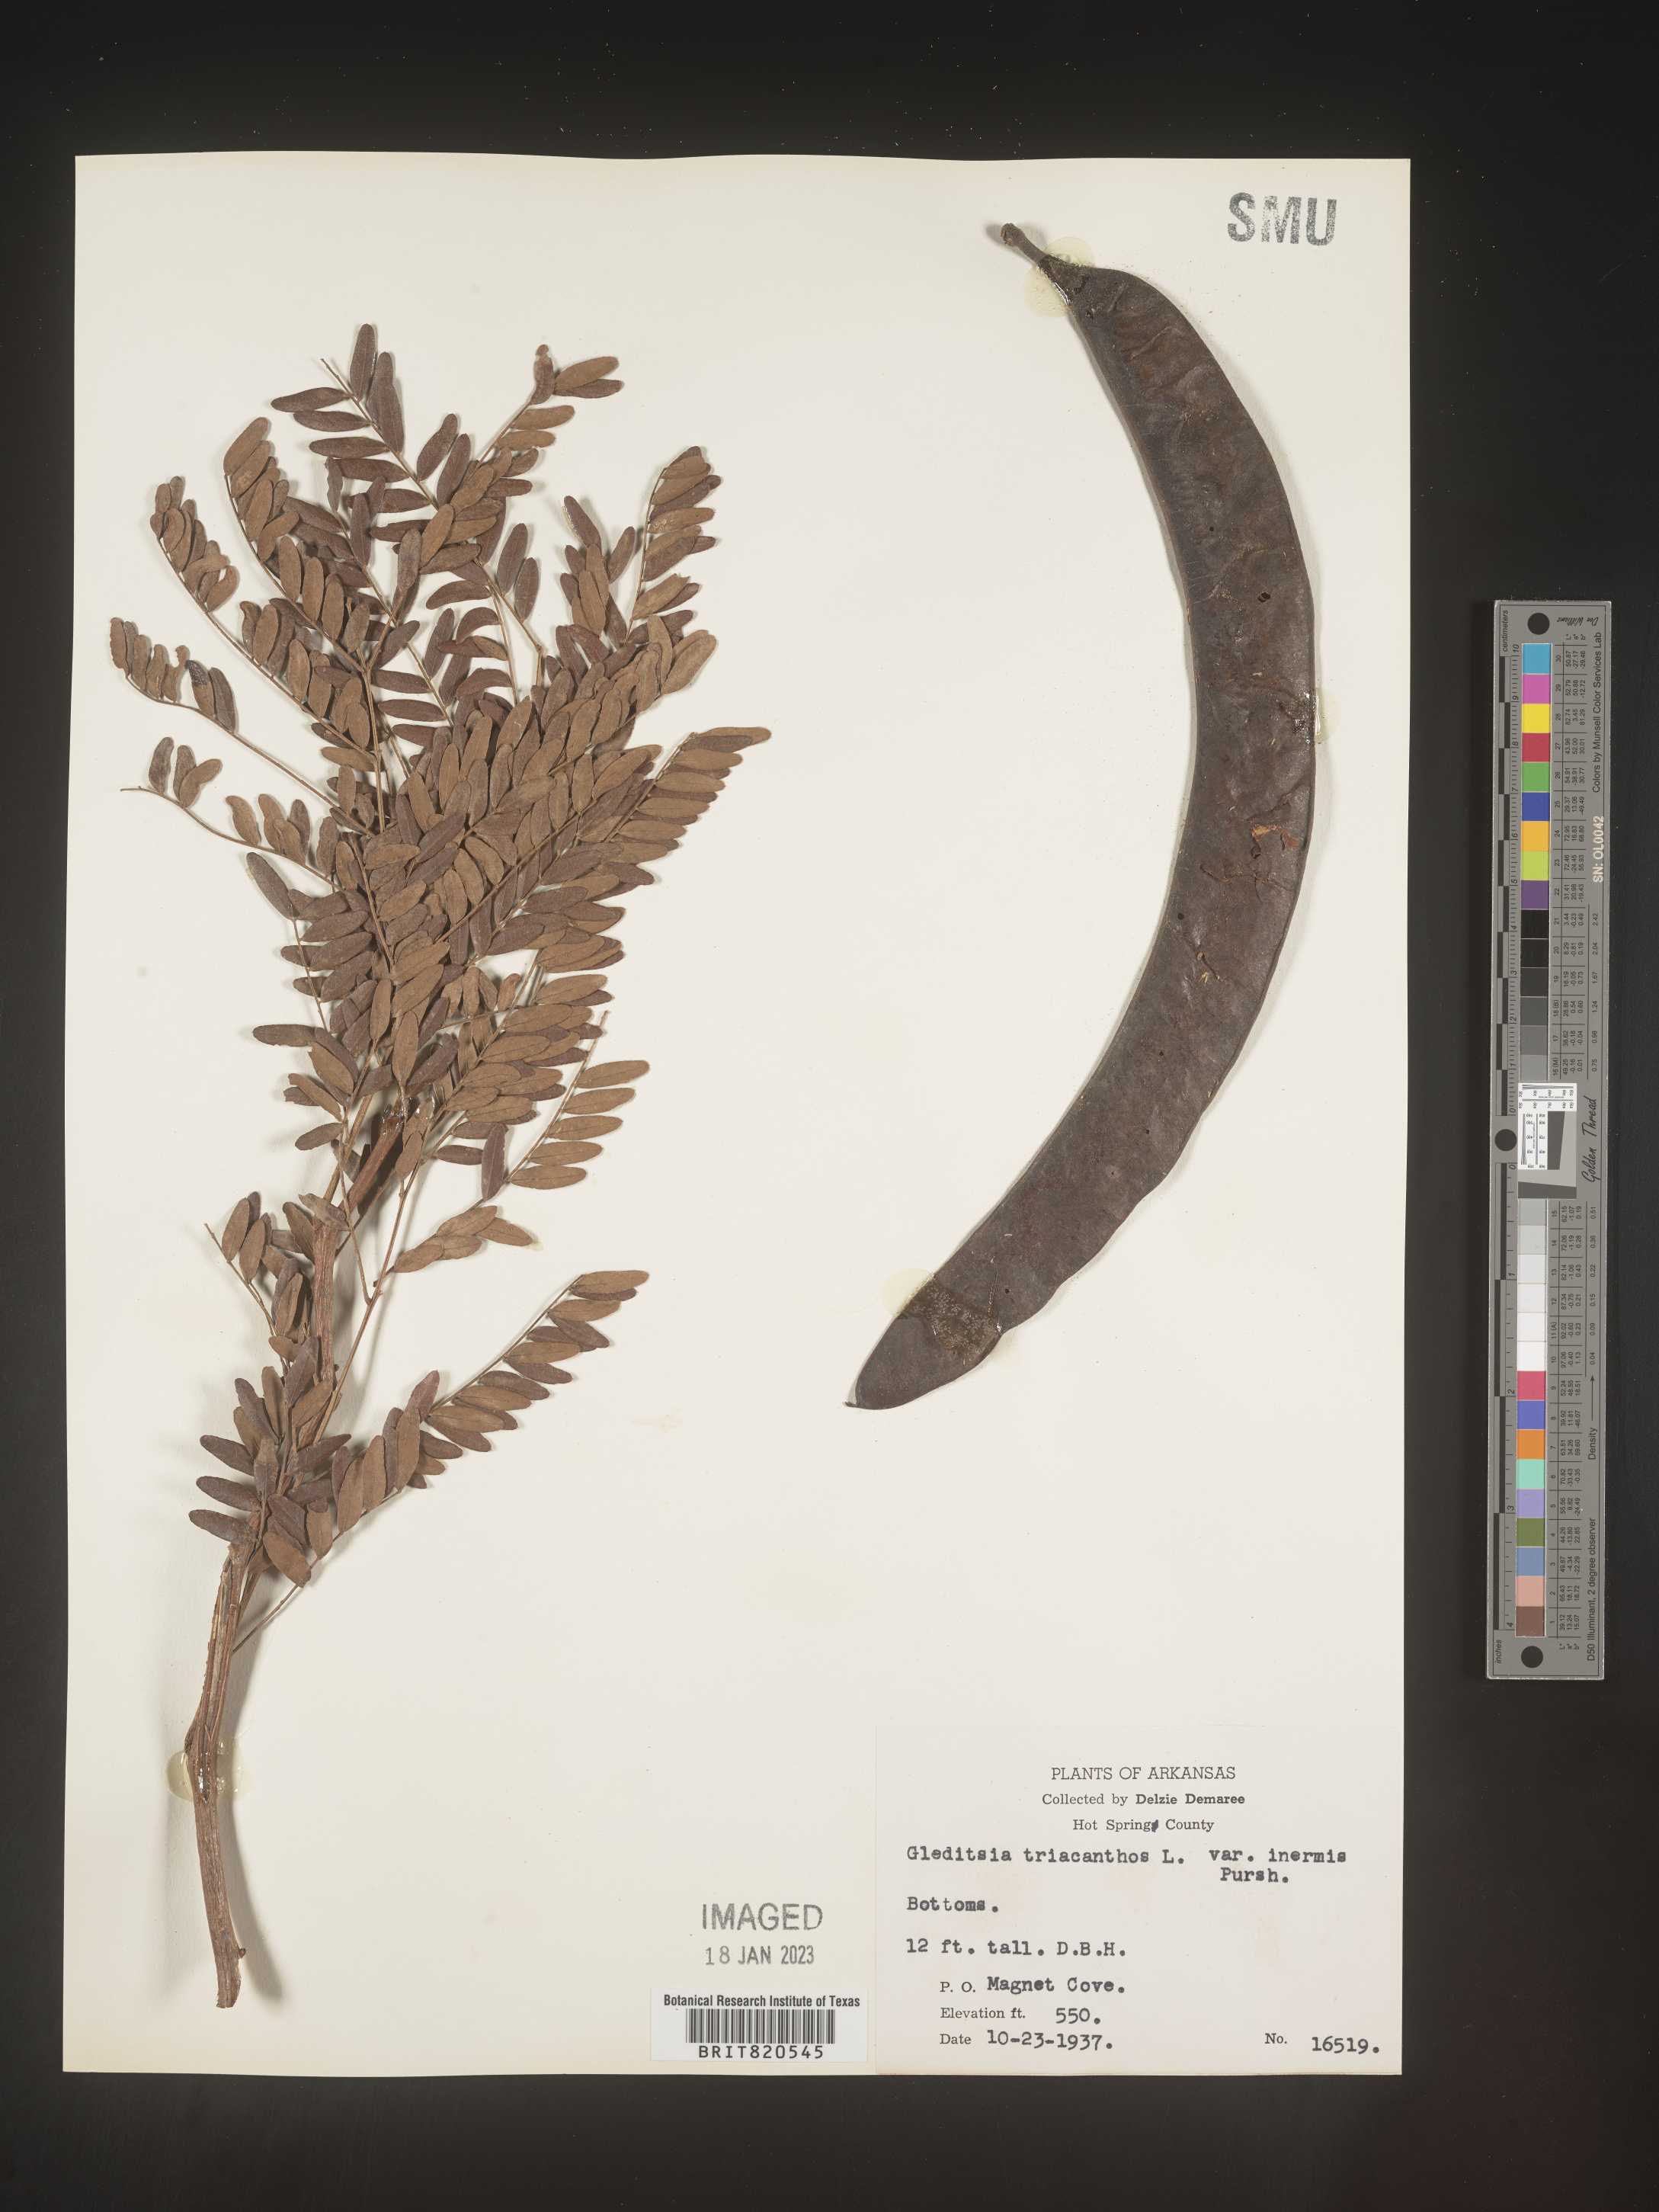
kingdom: Plantae
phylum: Tracheophyta
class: Magnoliopsida
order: Fabales
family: Fabaceae
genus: Gleditsia
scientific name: Gleditsia triacanthos
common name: Common honeylocust
